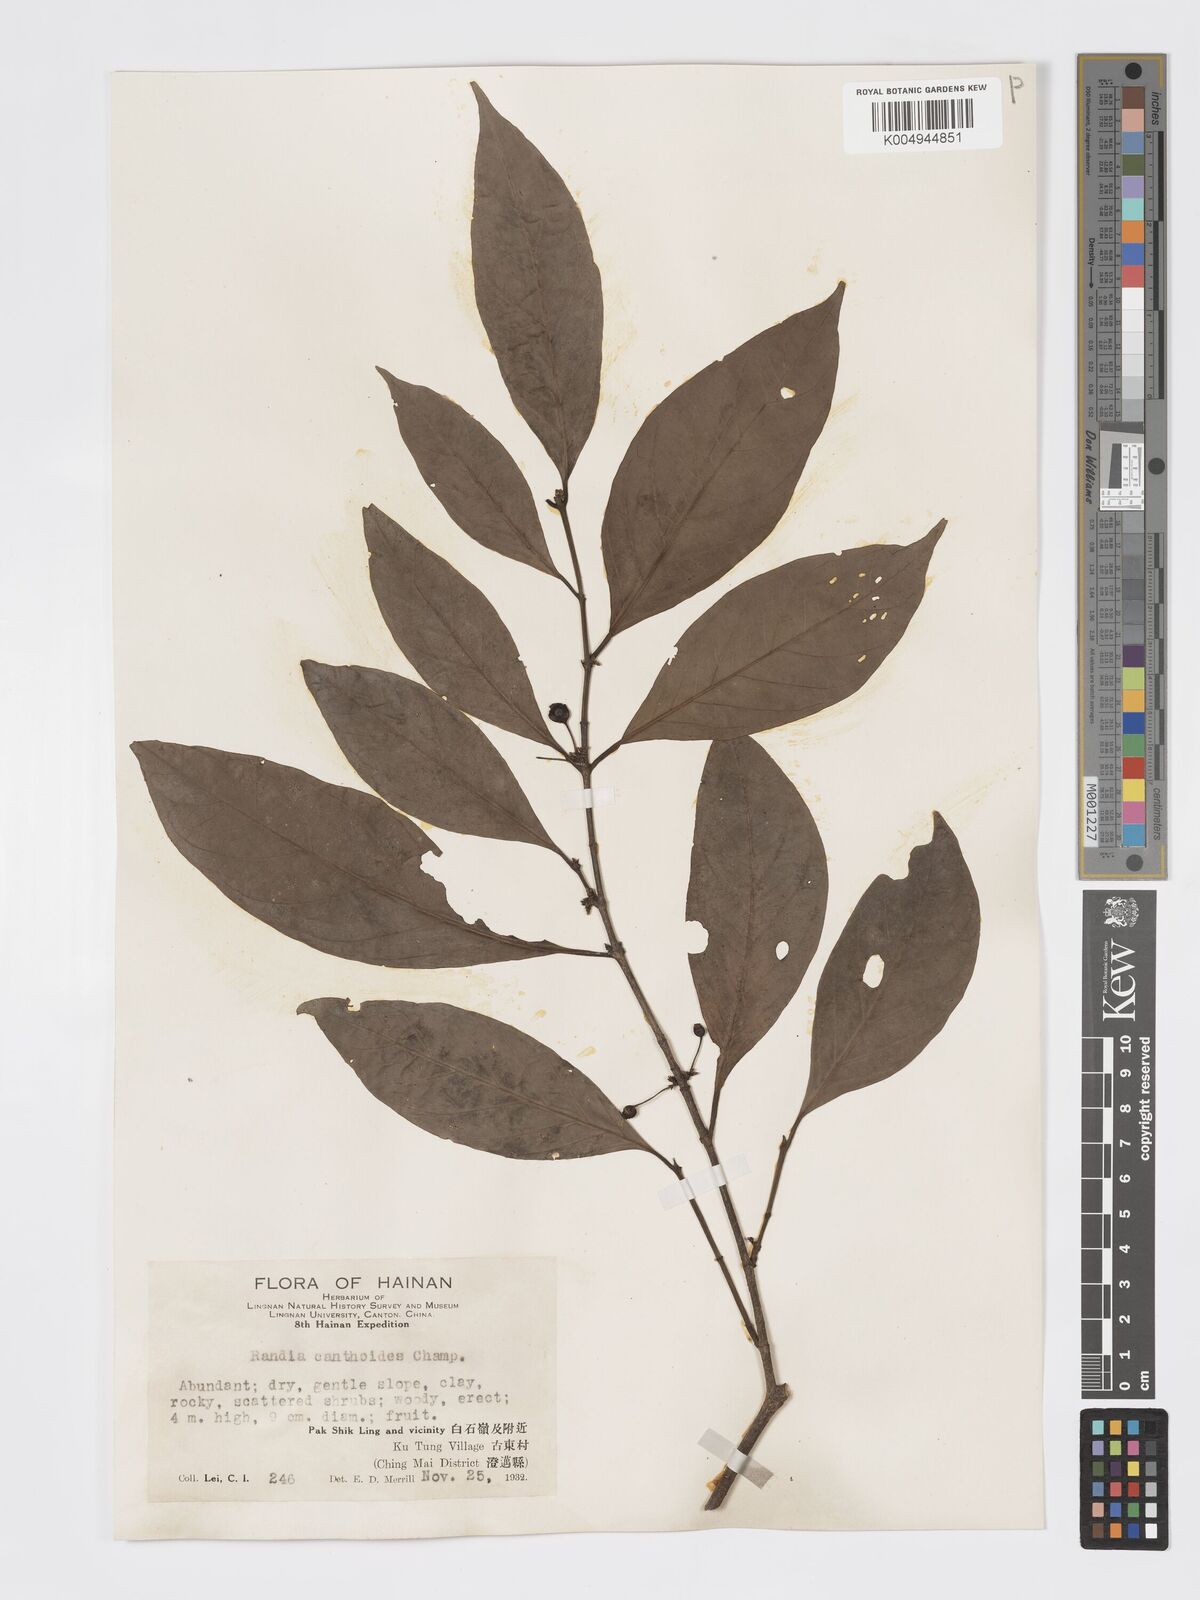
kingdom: Plantae
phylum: Tracheophyta
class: Magnoliopsida
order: Gentianales
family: Rubiaceae
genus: Aidia
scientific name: Aidia canthioides
